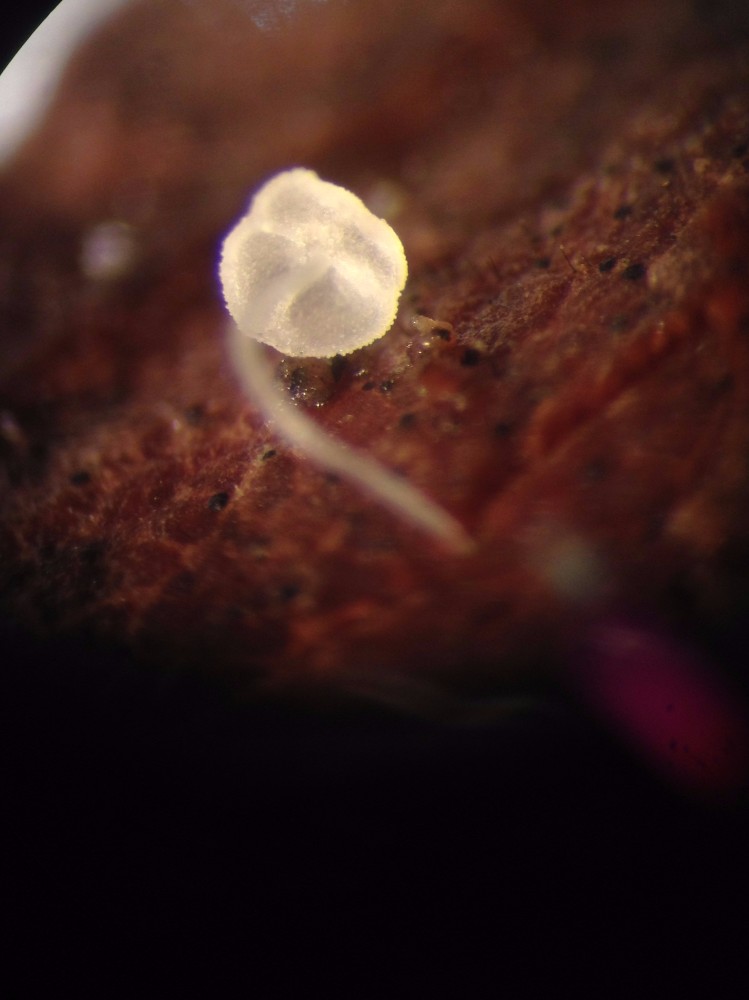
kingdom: Fungi
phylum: Basidiomycota
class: Agaricomycetes
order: Agaricales
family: Physalacriaceae
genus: Rhizomarasmius
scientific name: Rhizomarasmius setosus
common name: bøgeblads-bruskhat
